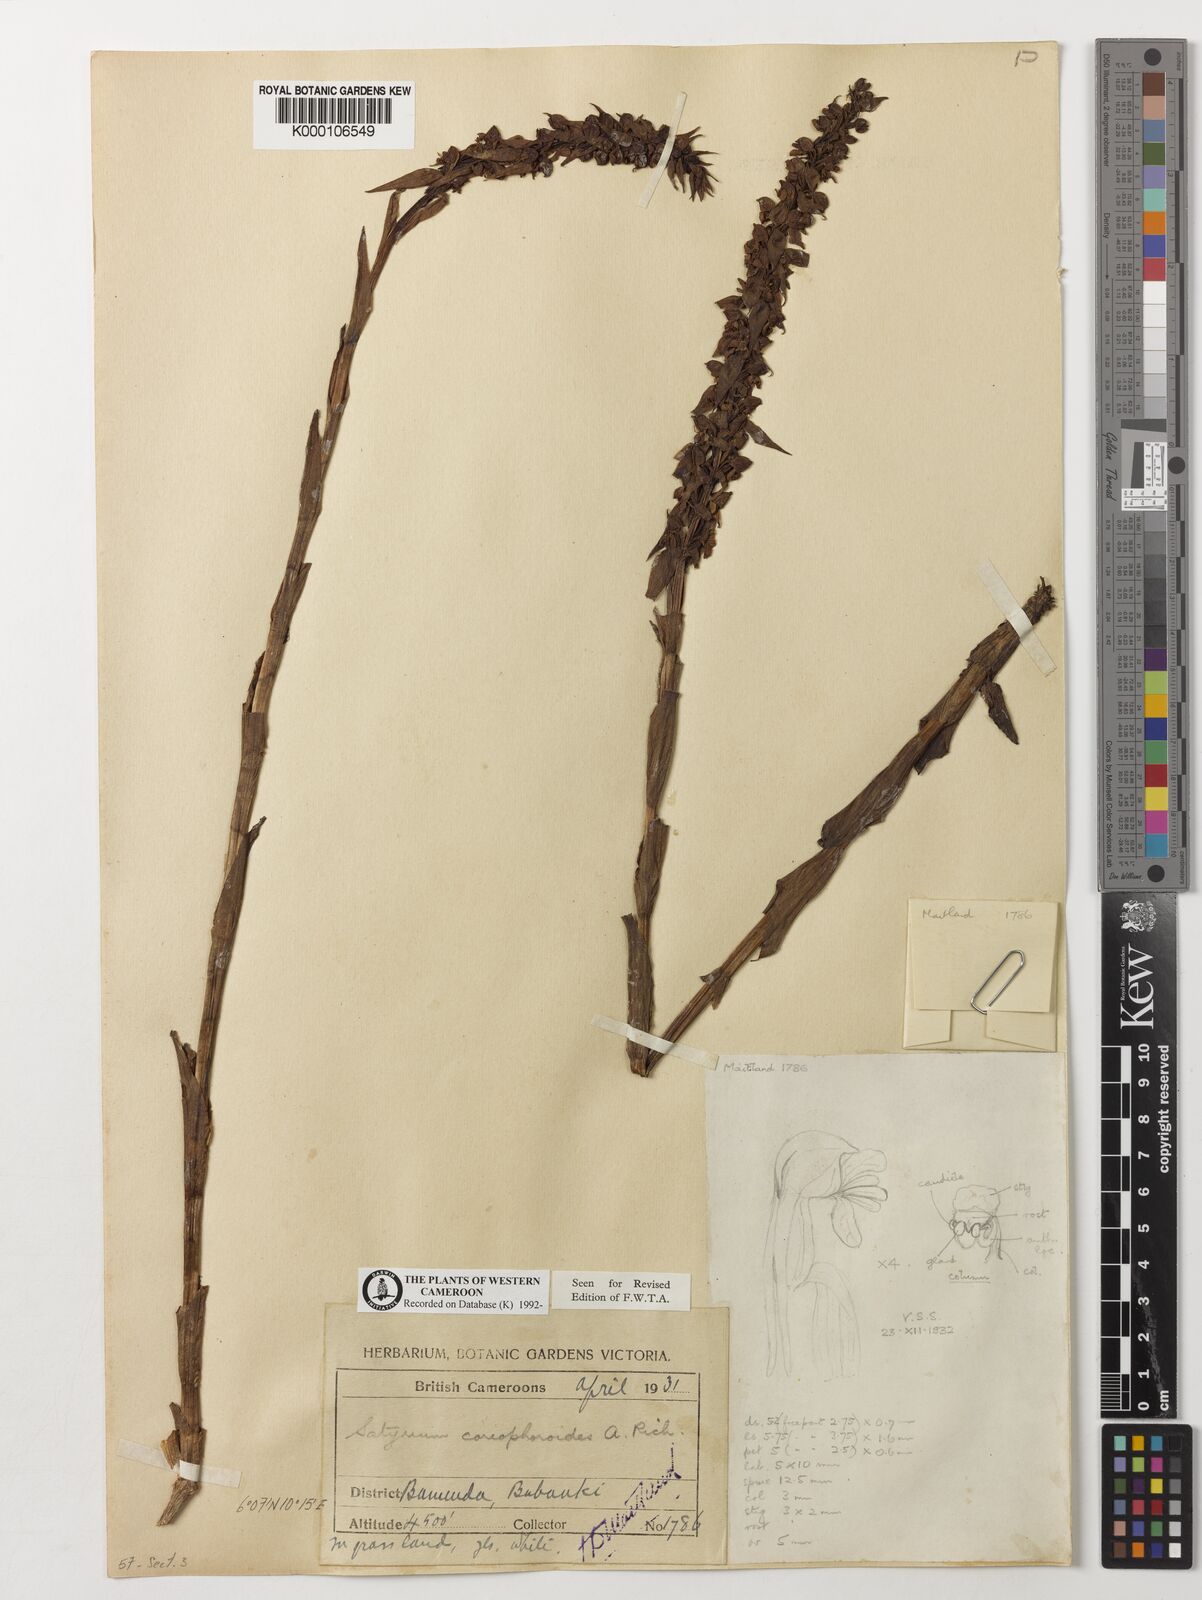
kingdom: Plantae
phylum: Tracheophyta
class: Liliopsida
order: Asparagales
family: Orchidaceae
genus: Satyrium
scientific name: Satyrium coriophoroides
